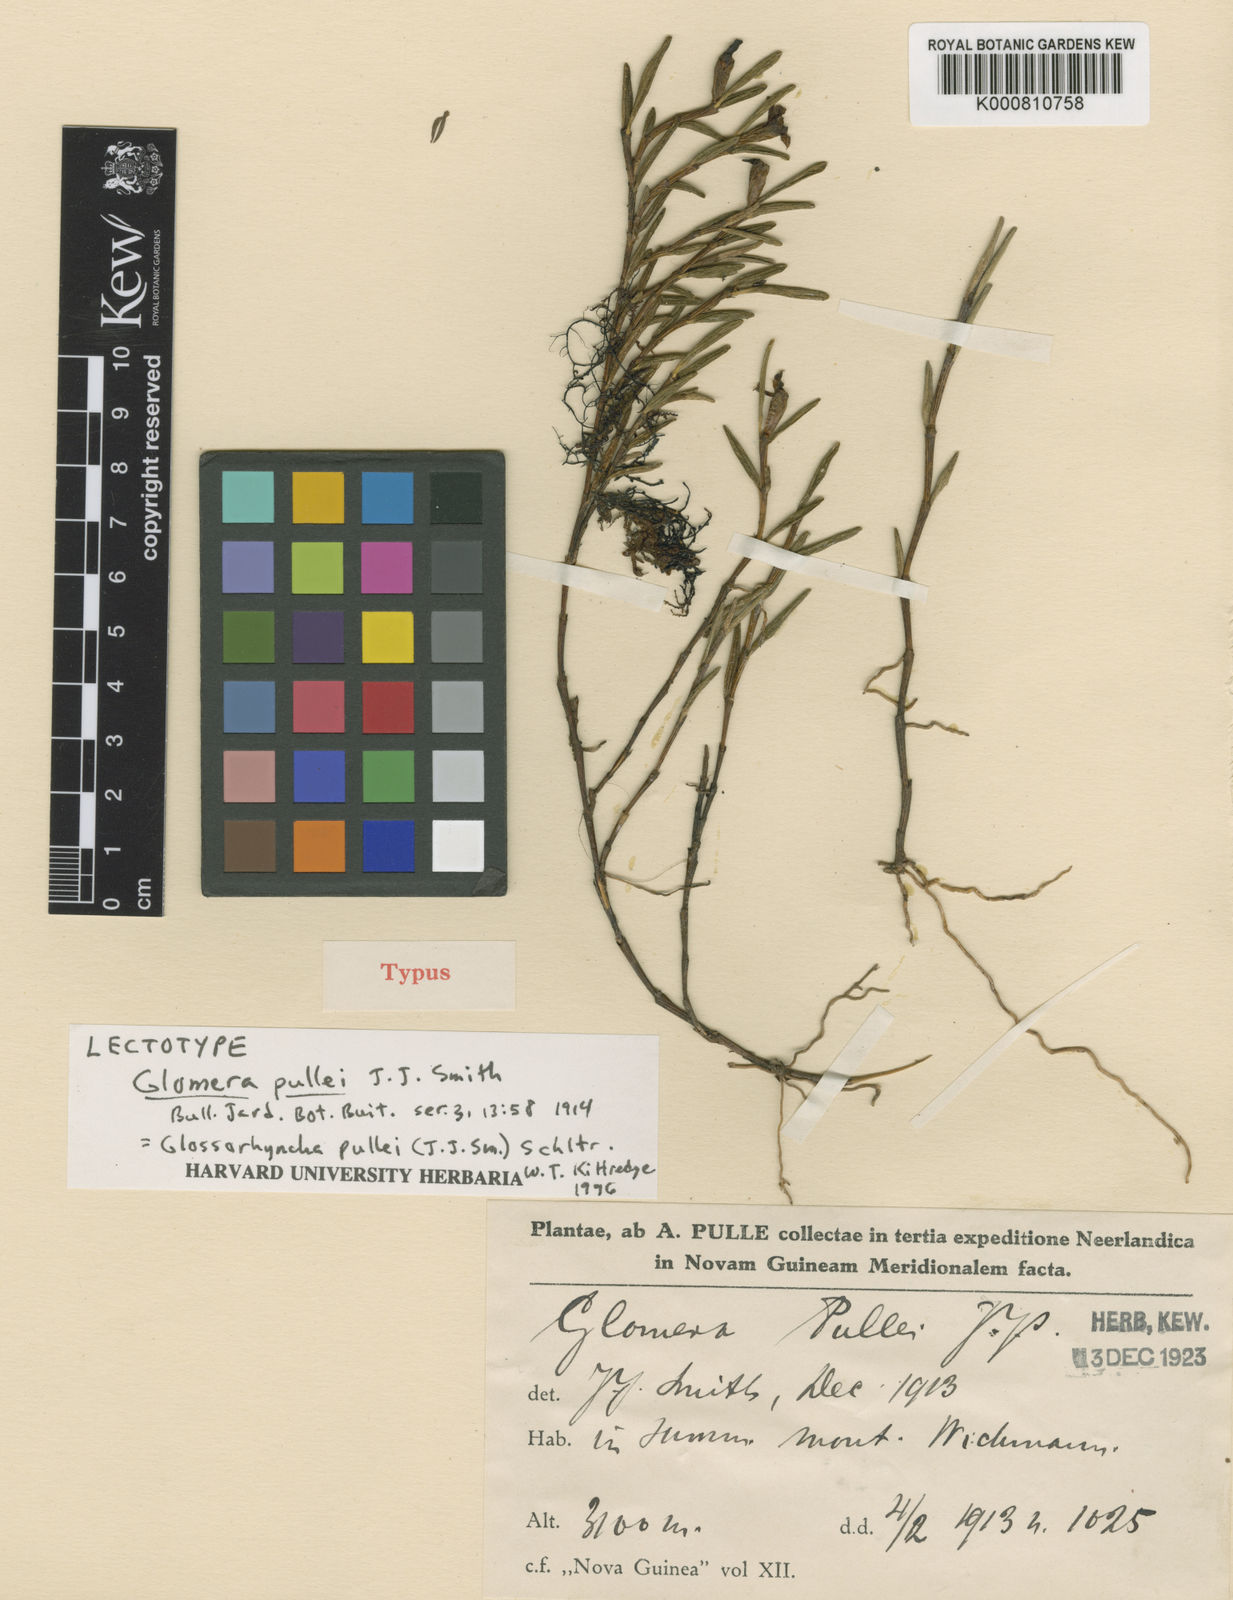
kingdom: Plantae
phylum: Tracheophyta
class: Liliopsida
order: Asparagales
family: Orchidaceae
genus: Glomera
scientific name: Glomera pullei
